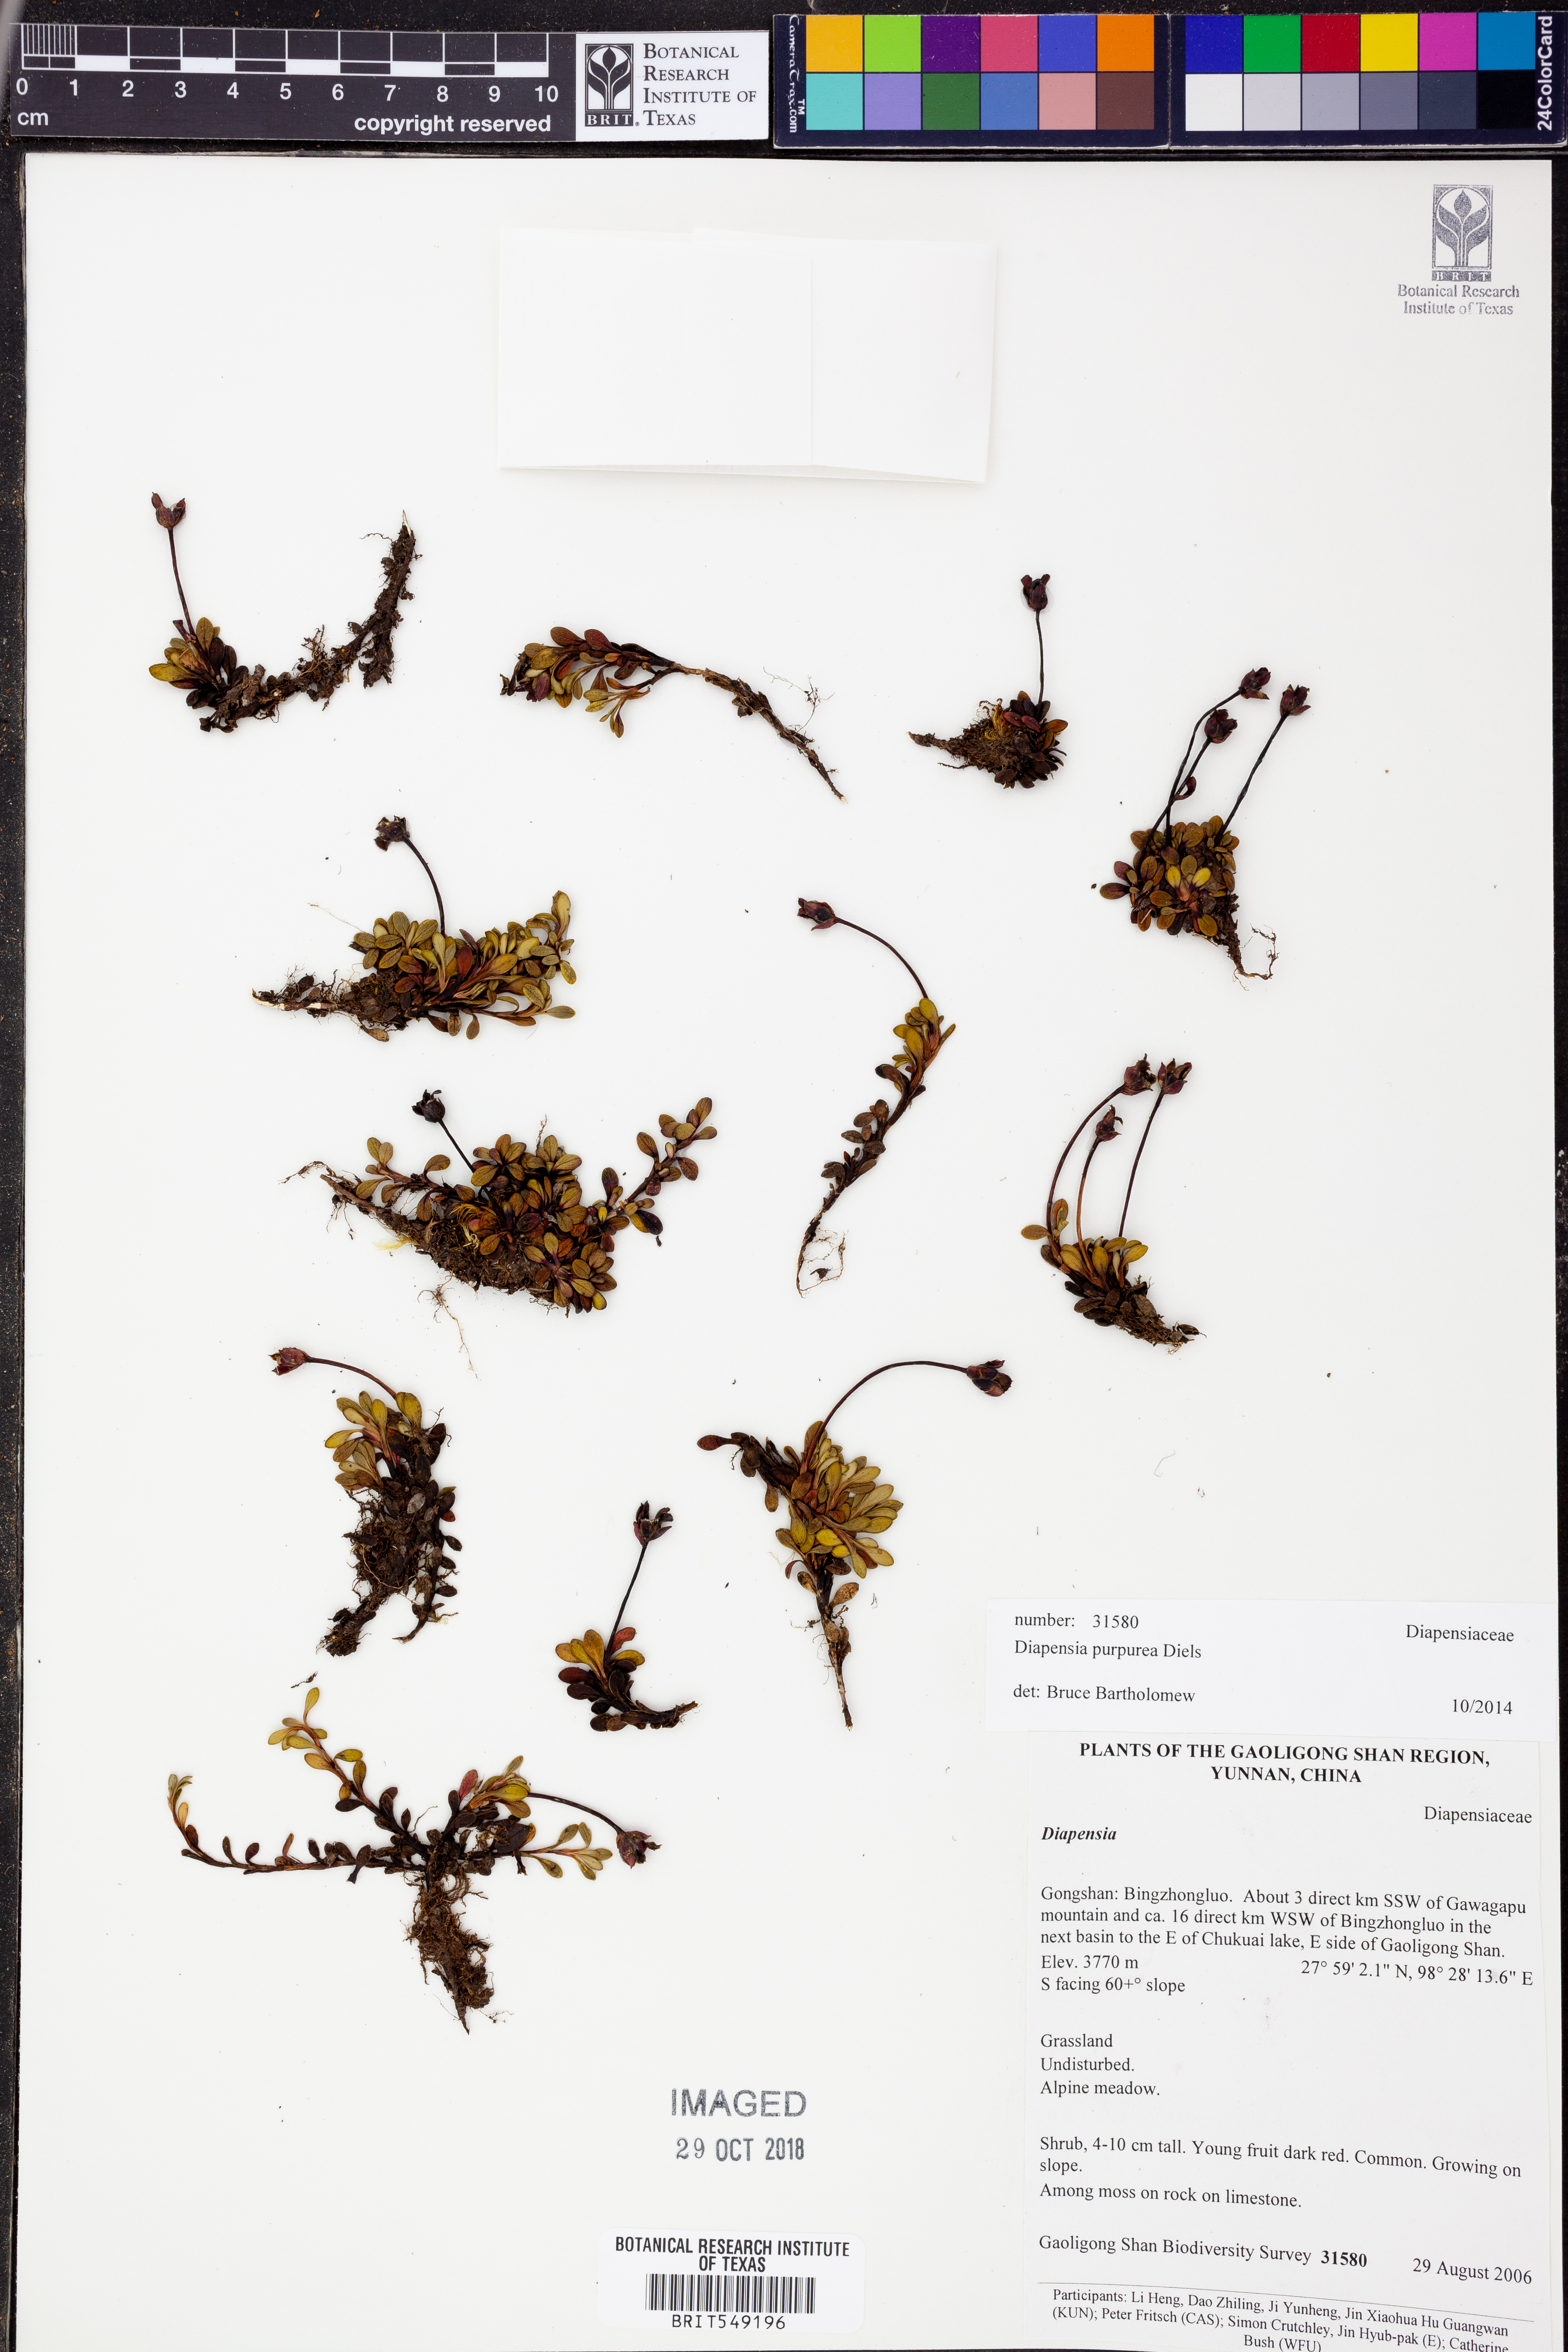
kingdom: Plantae
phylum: Tracheophyta
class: Magnoliopsida
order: Ericales
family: Diapensiaceae
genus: Diapensia
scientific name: Diapensia purpurea
